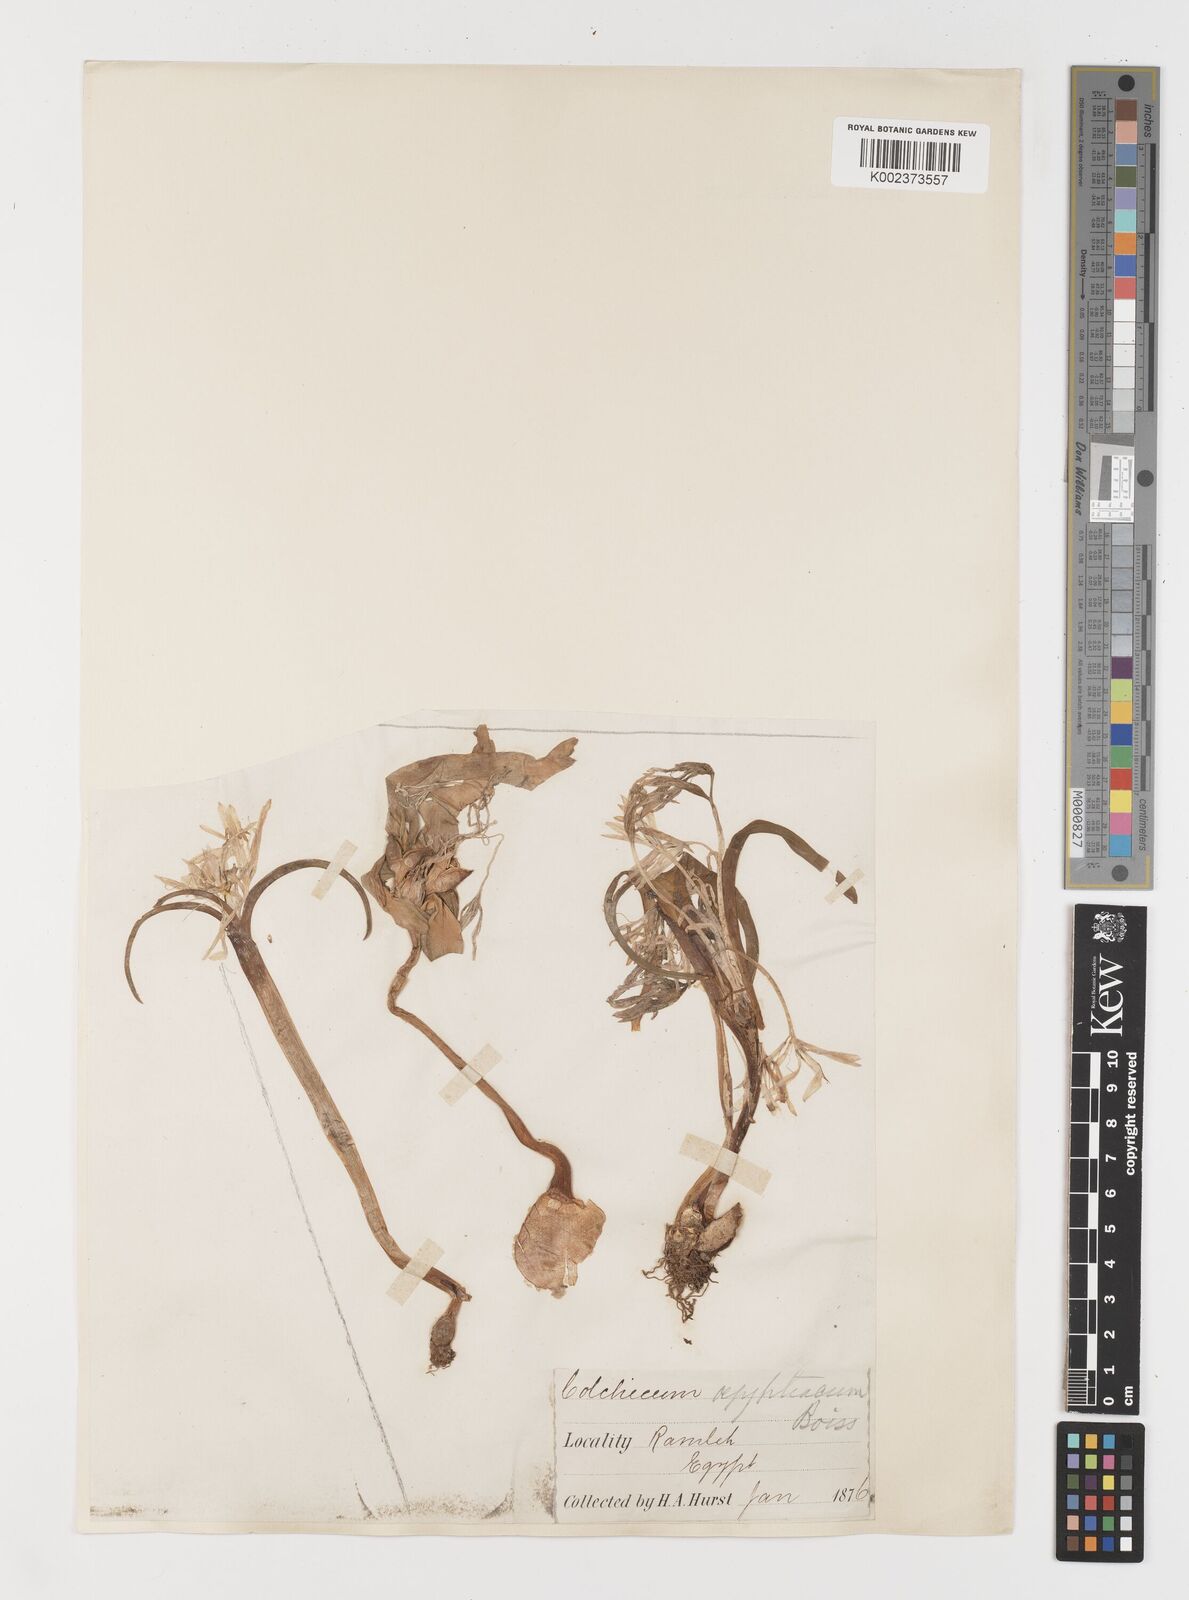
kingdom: Plantae
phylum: Tracheophyta
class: Liliopsida
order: Liliales
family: Colchicaceae
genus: Colchicum
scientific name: Colchicum ritchii
